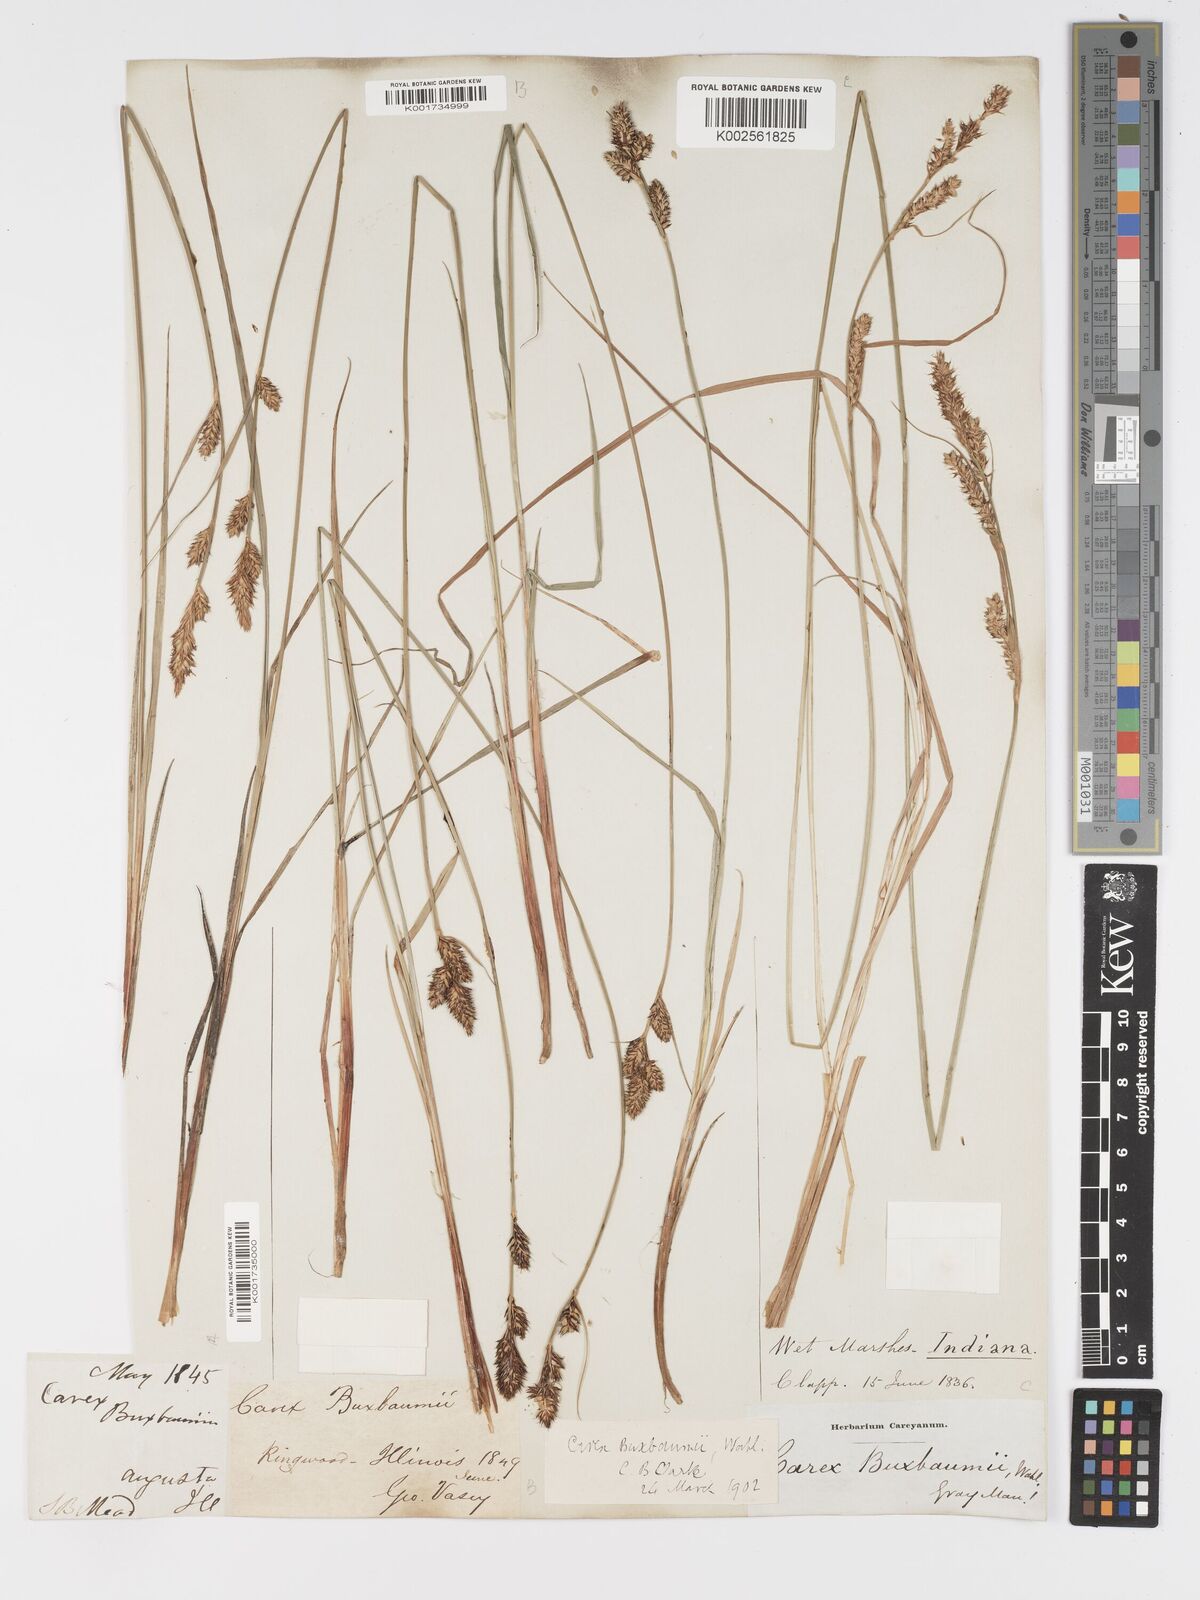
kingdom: Plantae
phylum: Tracheophyta
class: Liliopsida
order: Poales
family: Cyperaceae
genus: Carex
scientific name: Carex buxbaumii
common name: Club sedge
